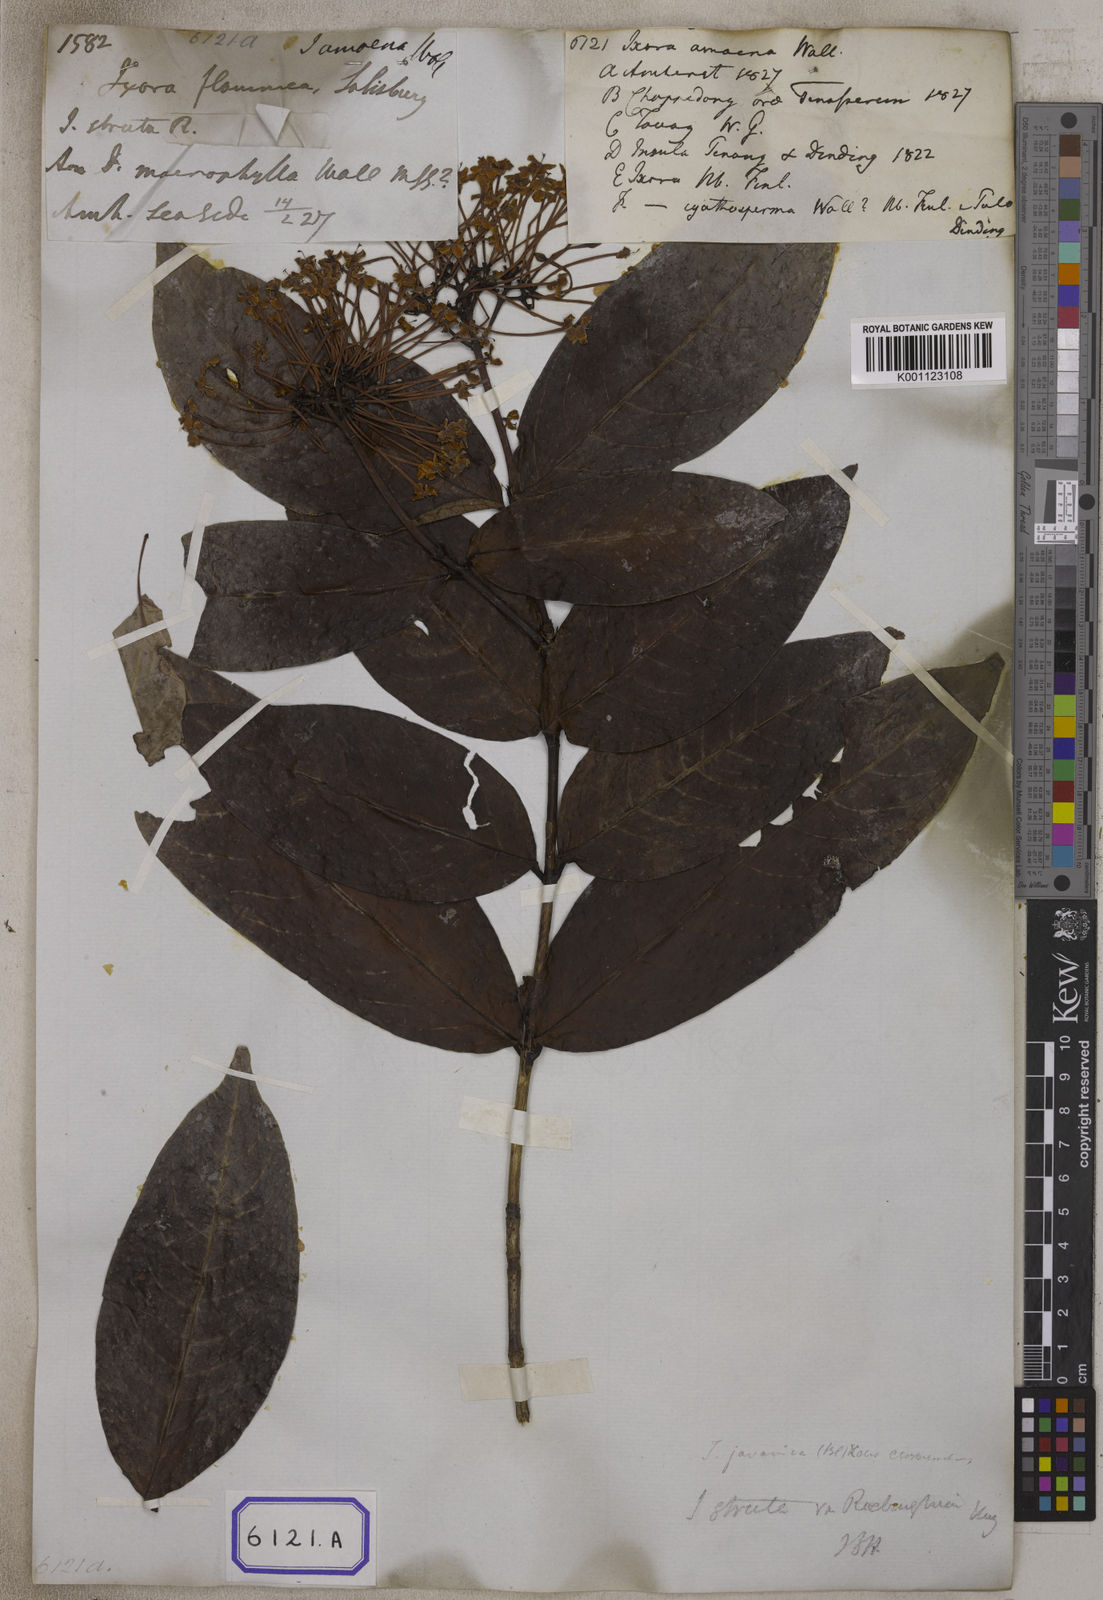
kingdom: Plantae
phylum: Tracheophyta
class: Magnoliopsida
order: Gentianales
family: Rubiaceae
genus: Ixora
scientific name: Ixora
